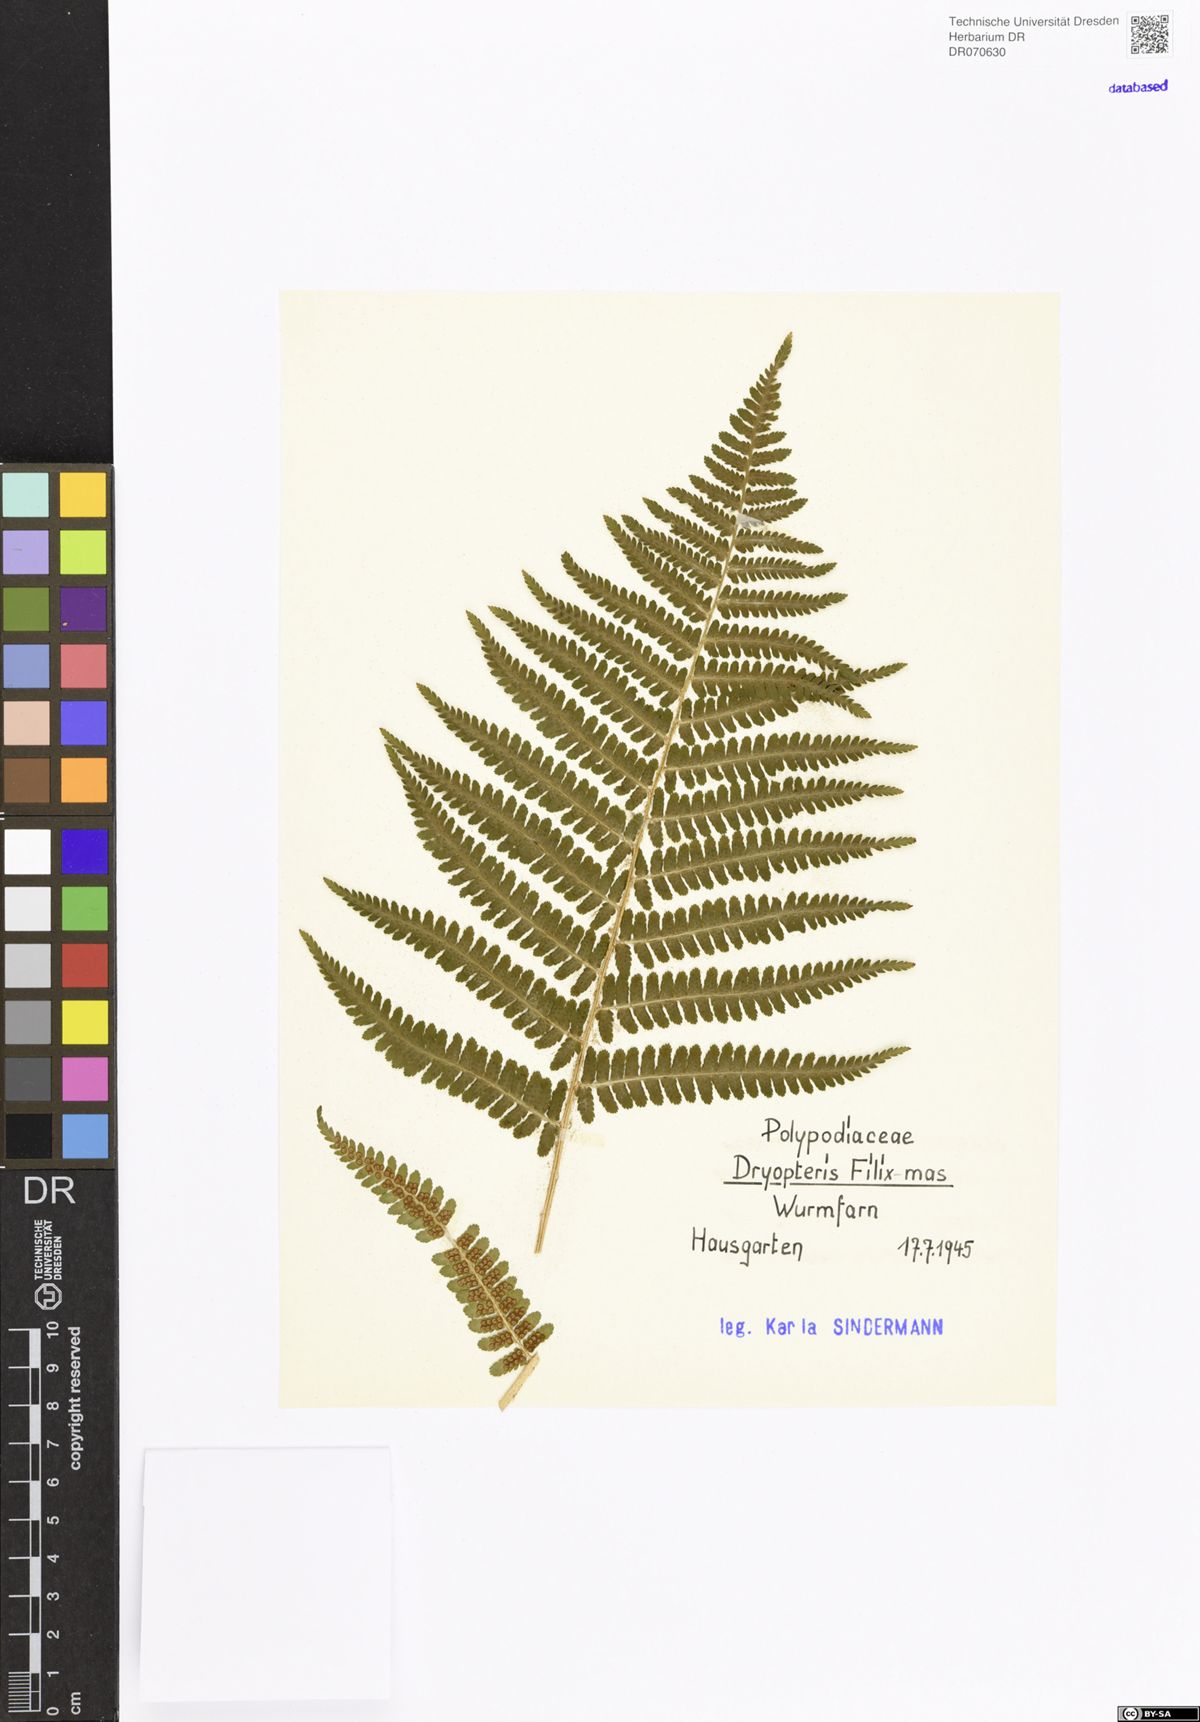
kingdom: Plantae
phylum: Tracheophyta
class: Polypodiopsida
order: Polypodiales
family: Dryopteridaceae
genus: Dryopteris
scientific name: Dryopteris filix-mas
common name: Male fern
